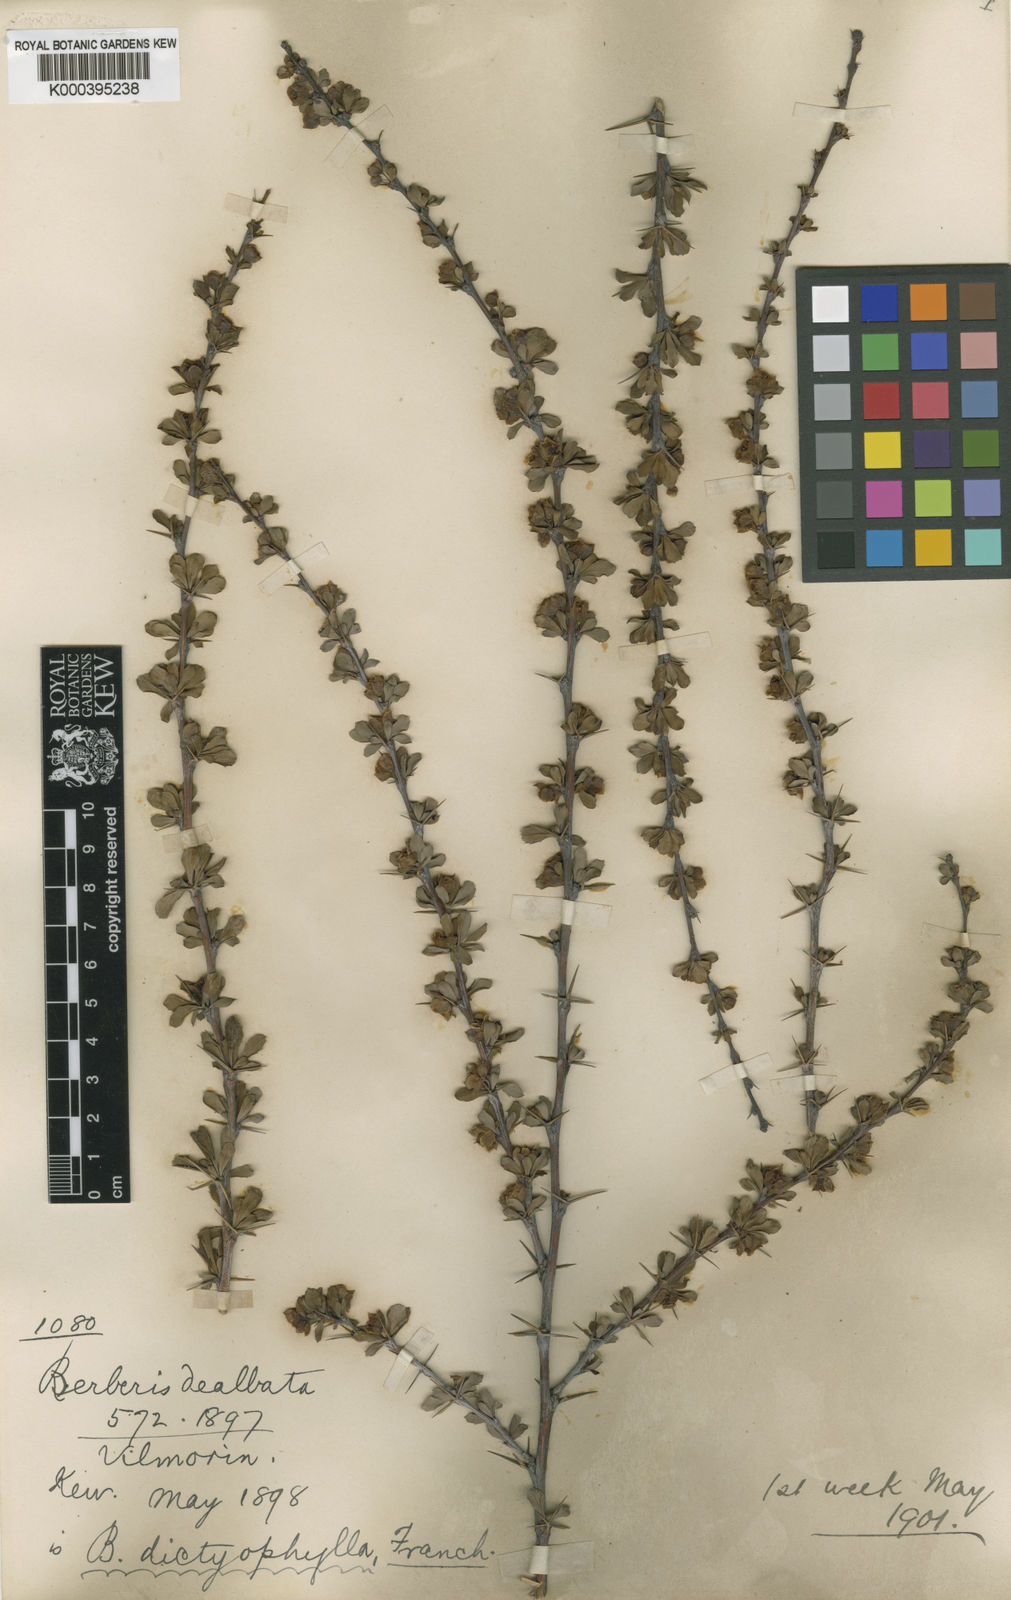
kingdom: Plantae
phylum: Tracheophyta
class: Magnoliopsida
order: Ranunculales
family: Berberidaceae
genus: Berberis
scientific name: Berberis dictyophylla
